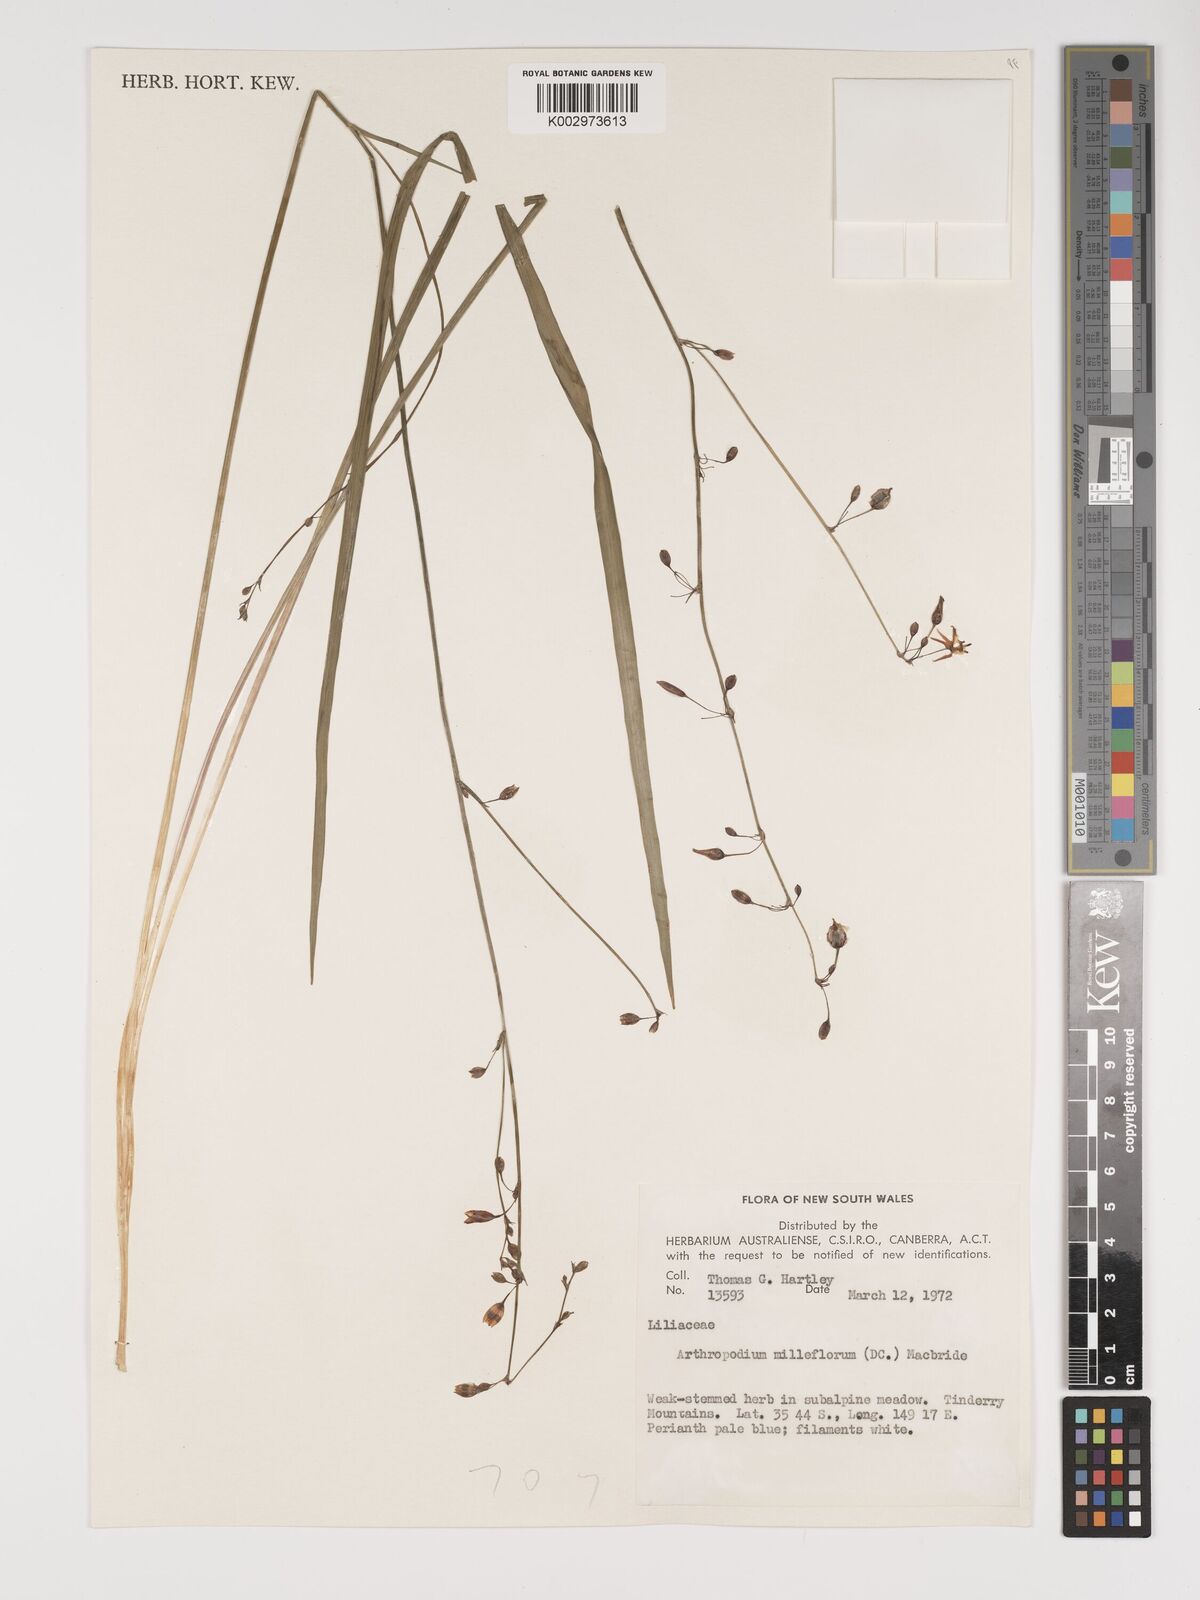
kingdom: Plantae
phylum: Tracheophyta
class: Liliopsida
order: Asparagales
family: Asparagaceae
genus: Arthropodium
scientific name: Arthropodium milleflorum
